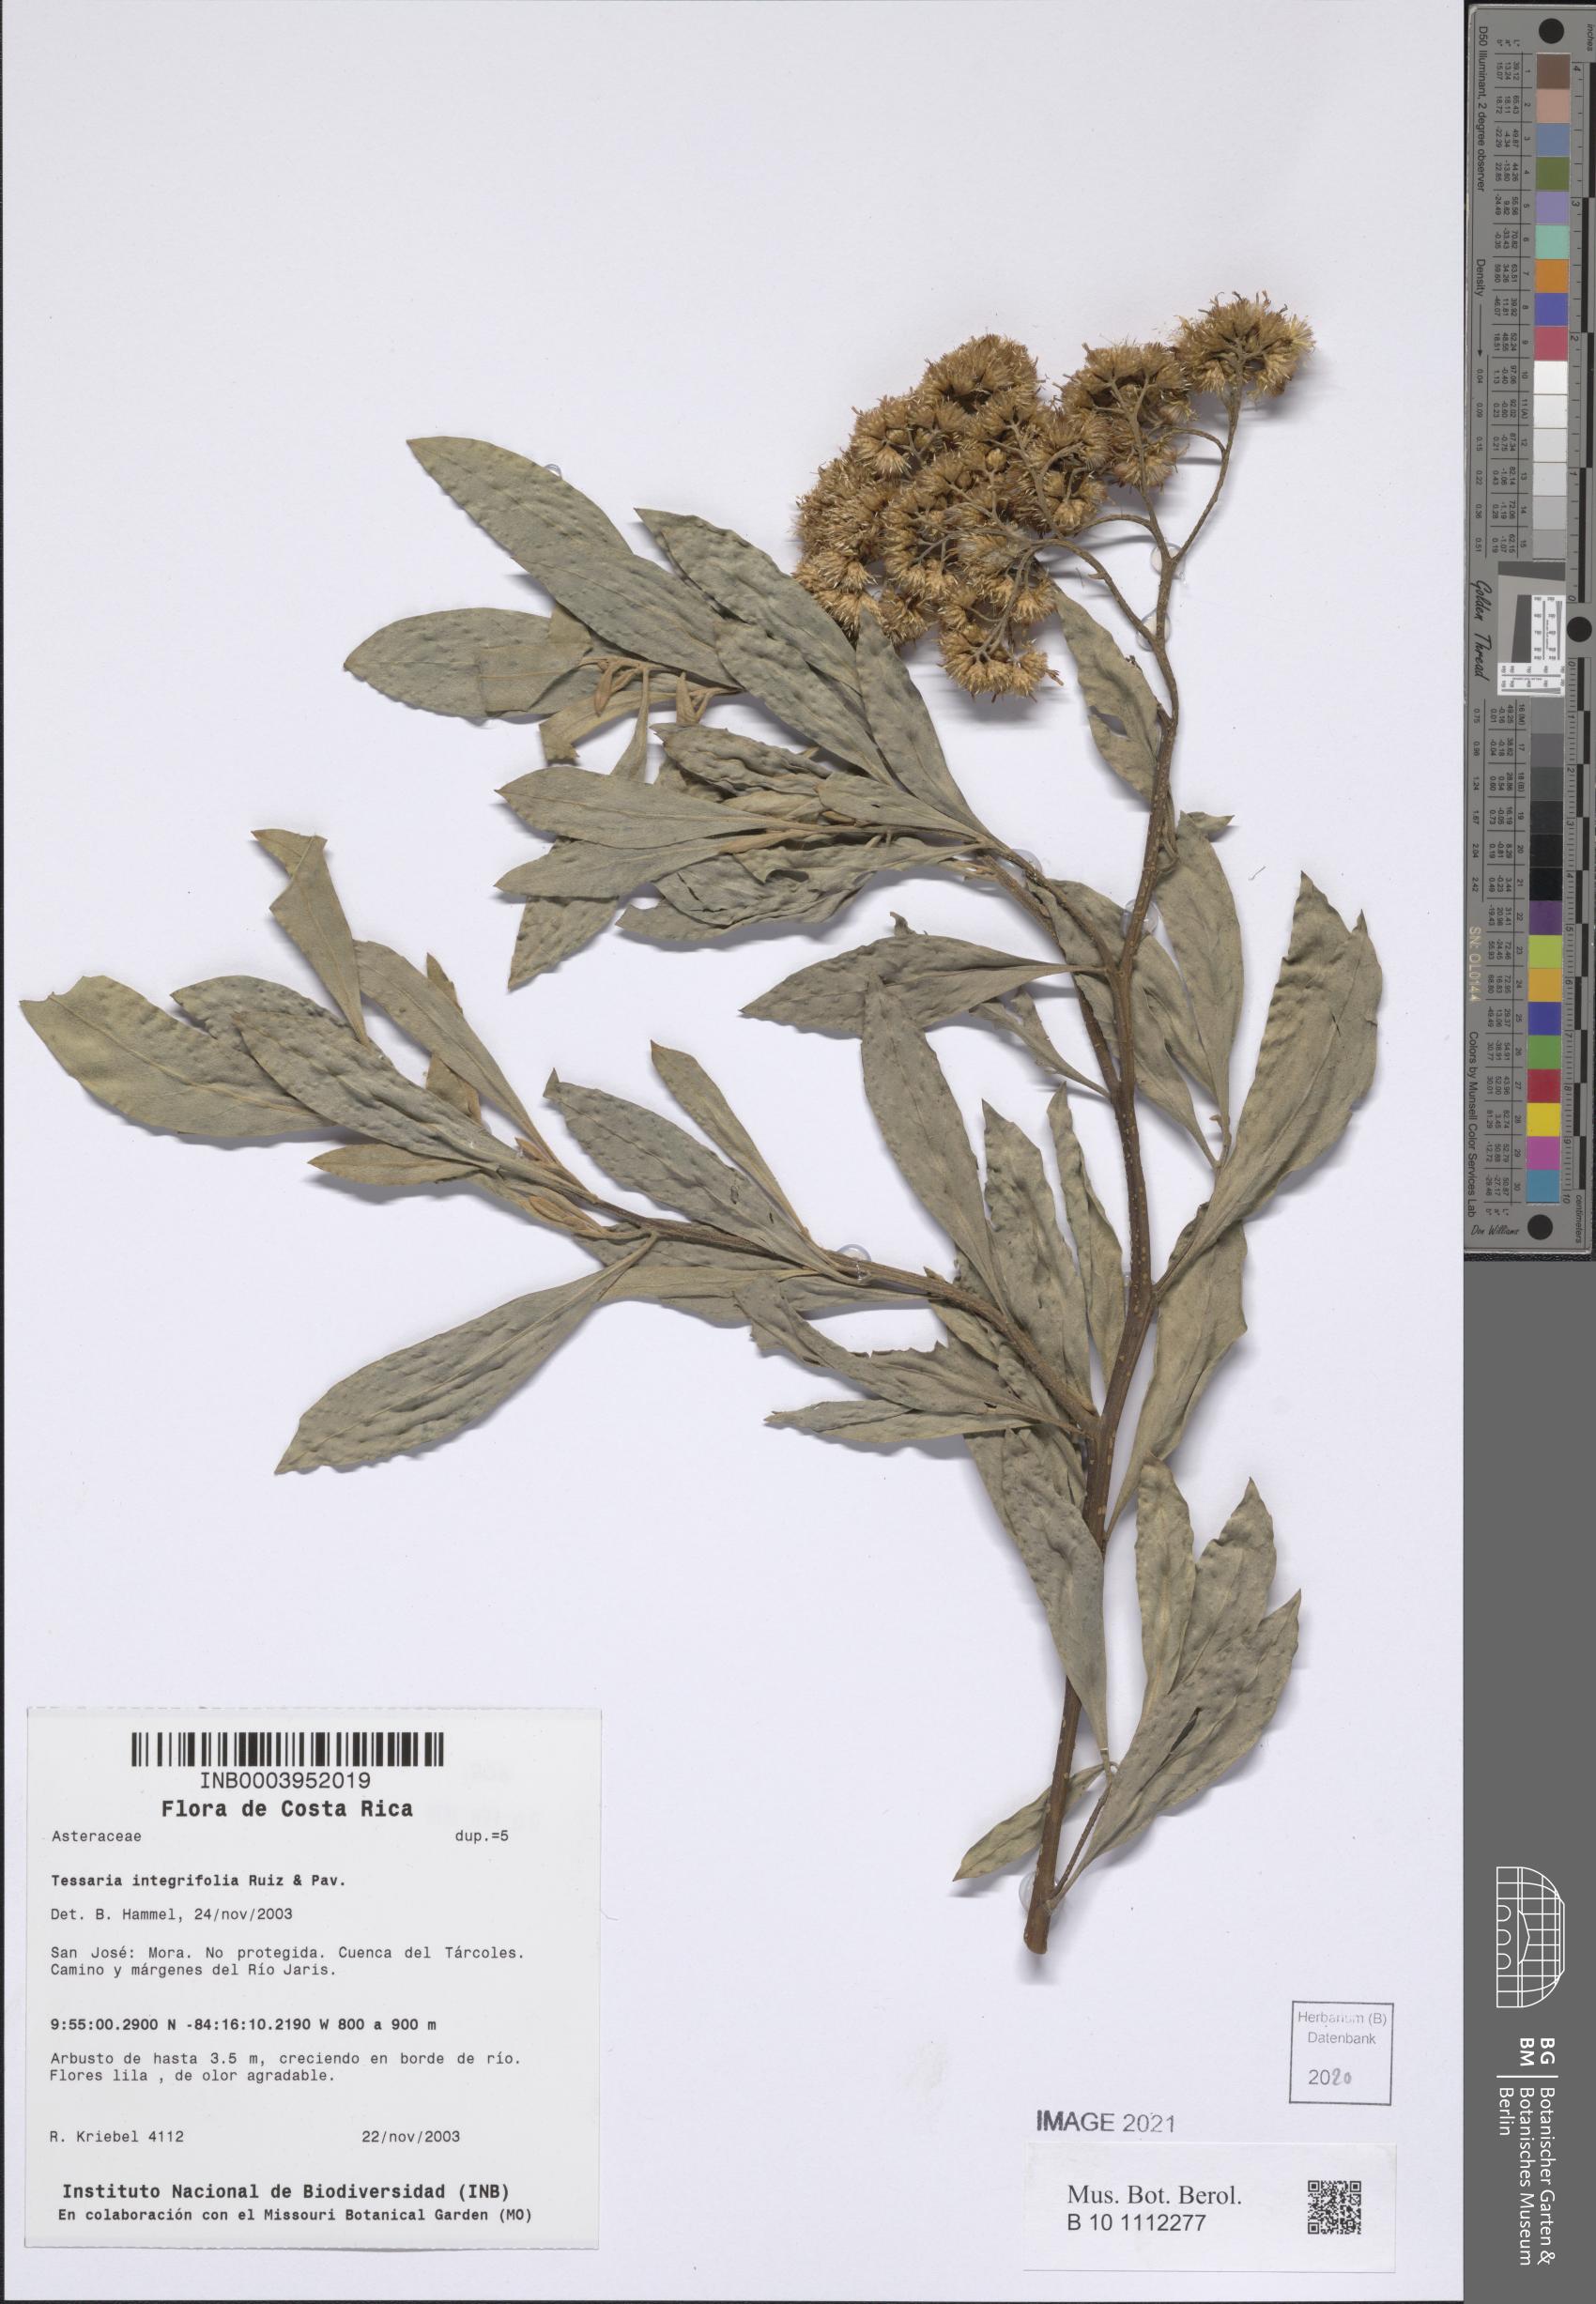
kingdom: Plantae
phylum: Tracheophyta
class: Magnoliopsida
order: Asterales
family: Asteraceae
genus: Tessaria
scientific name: Tessaria integrifolia
